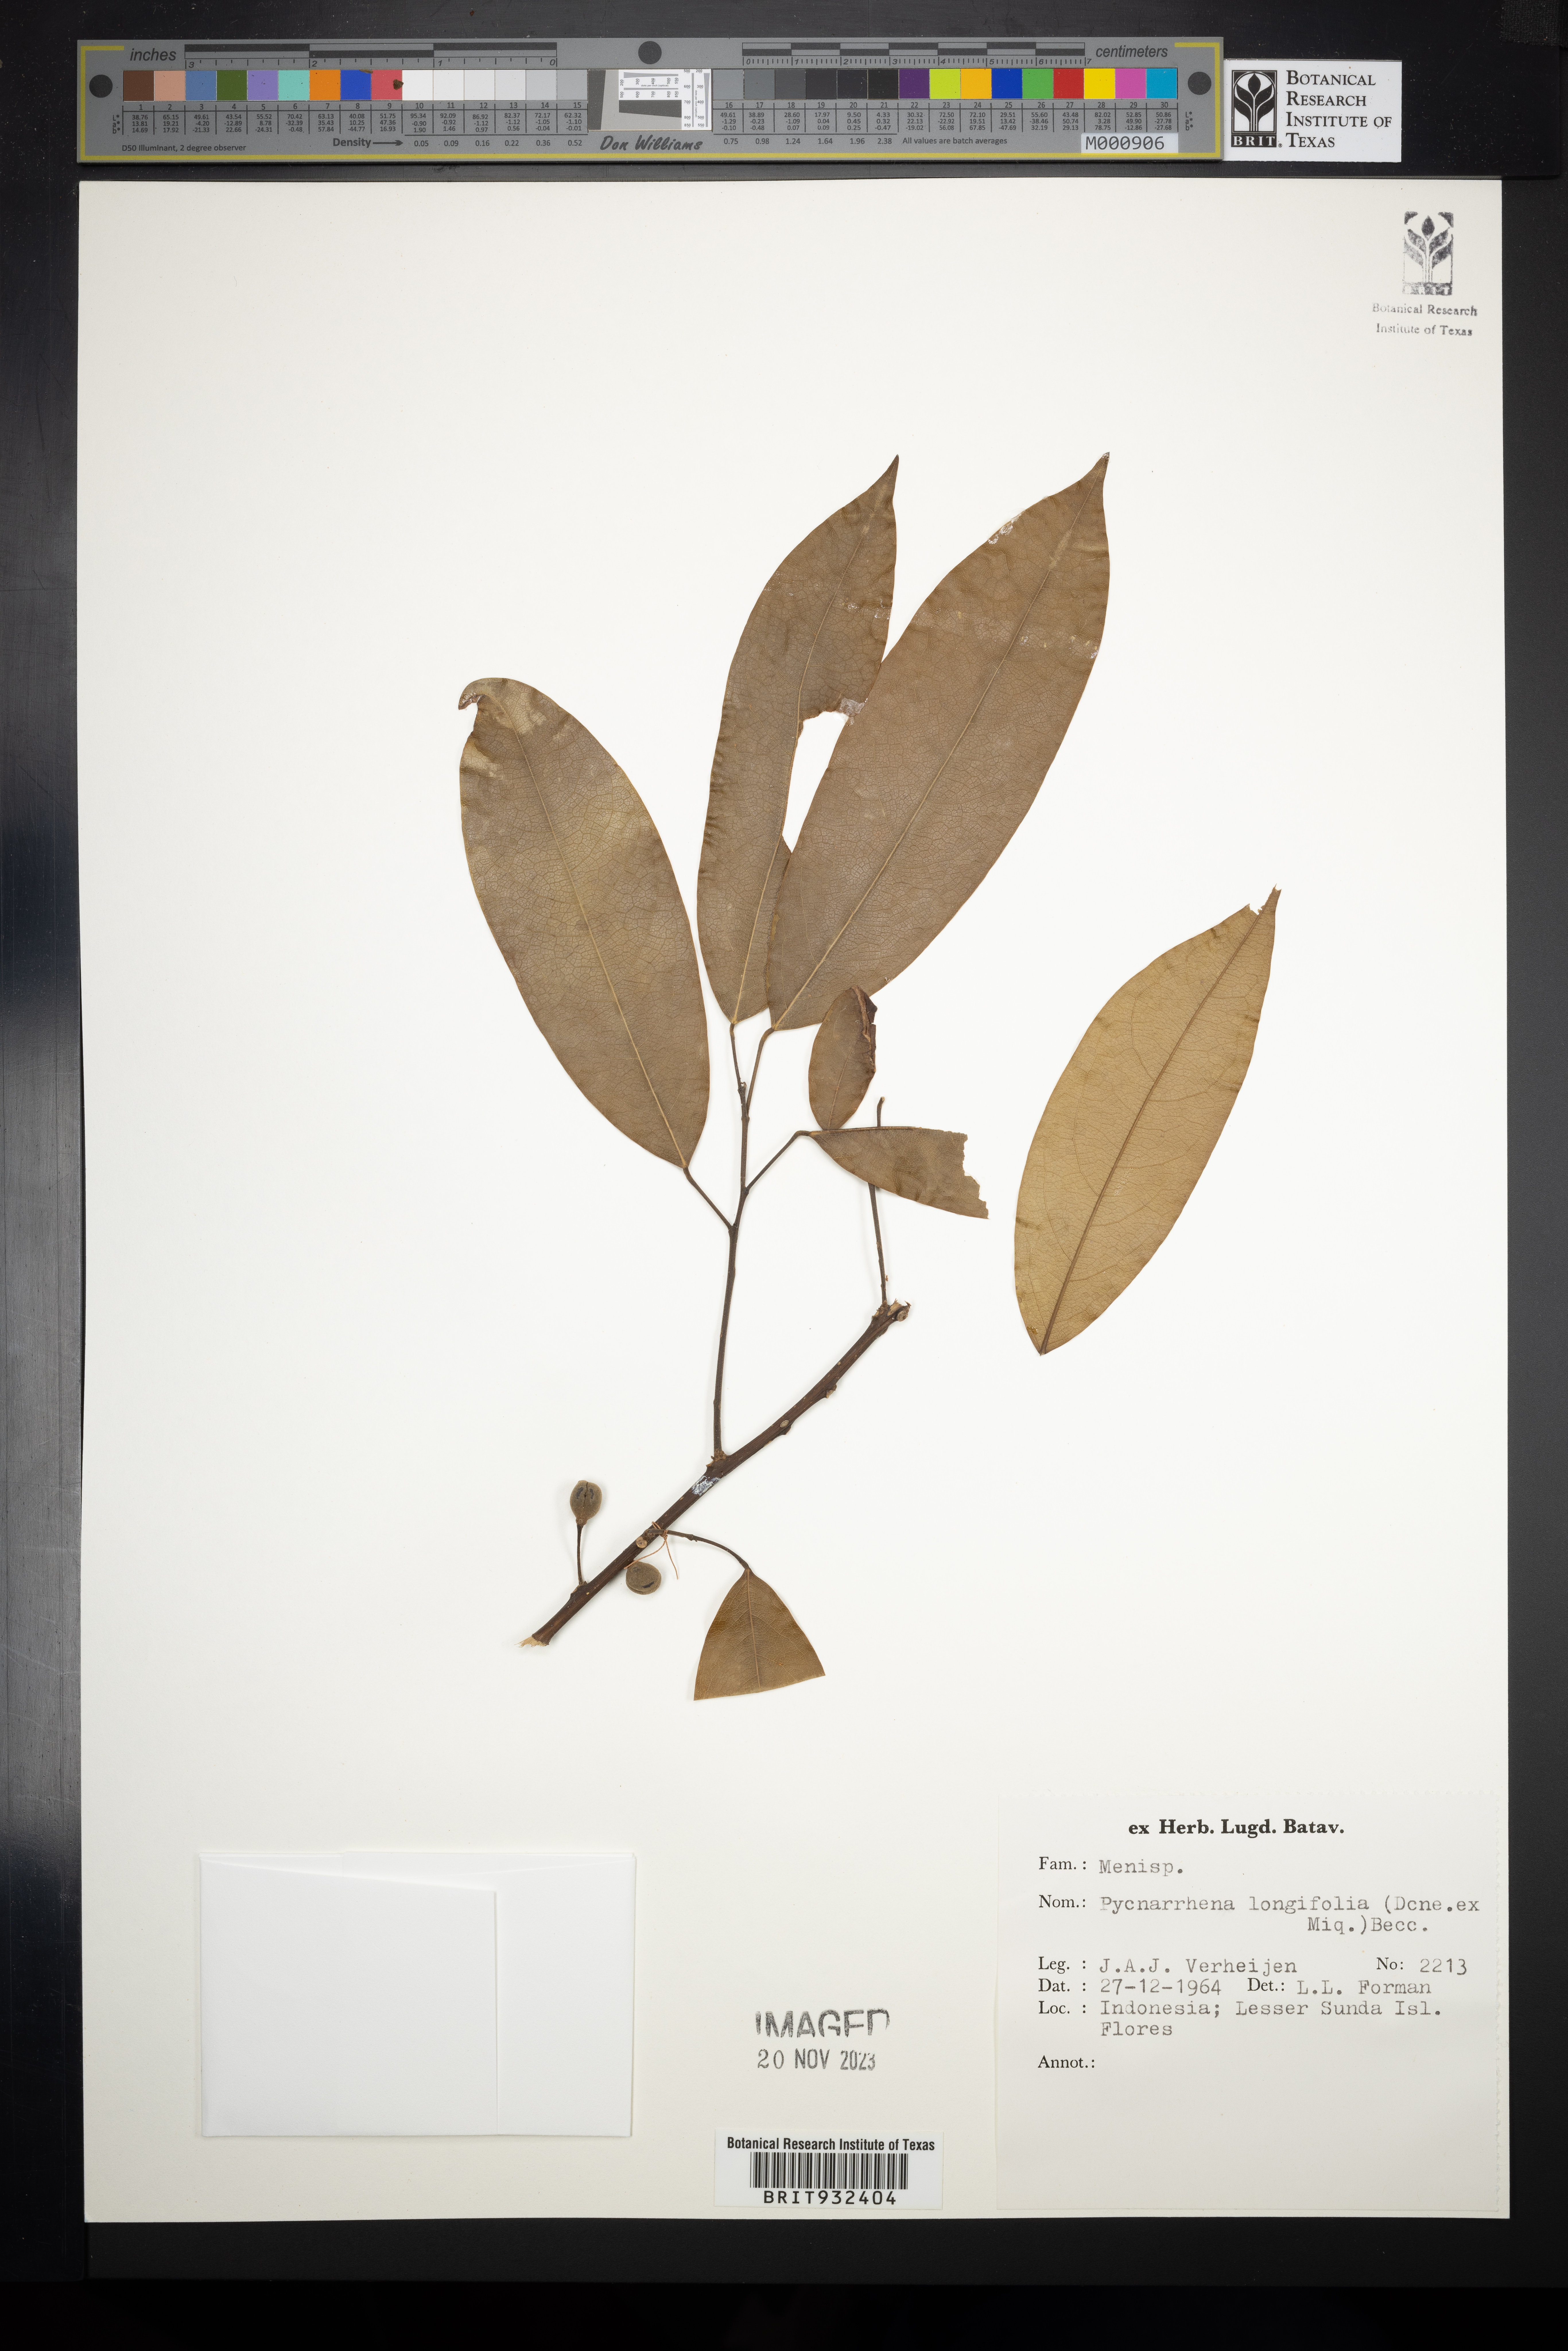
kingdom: Plantae
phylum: Tracheophyta
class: Magnoliopsida
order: Ranunculales
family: Menispermaceae
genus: Pycnarrhena
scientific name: Pycnarrhena
